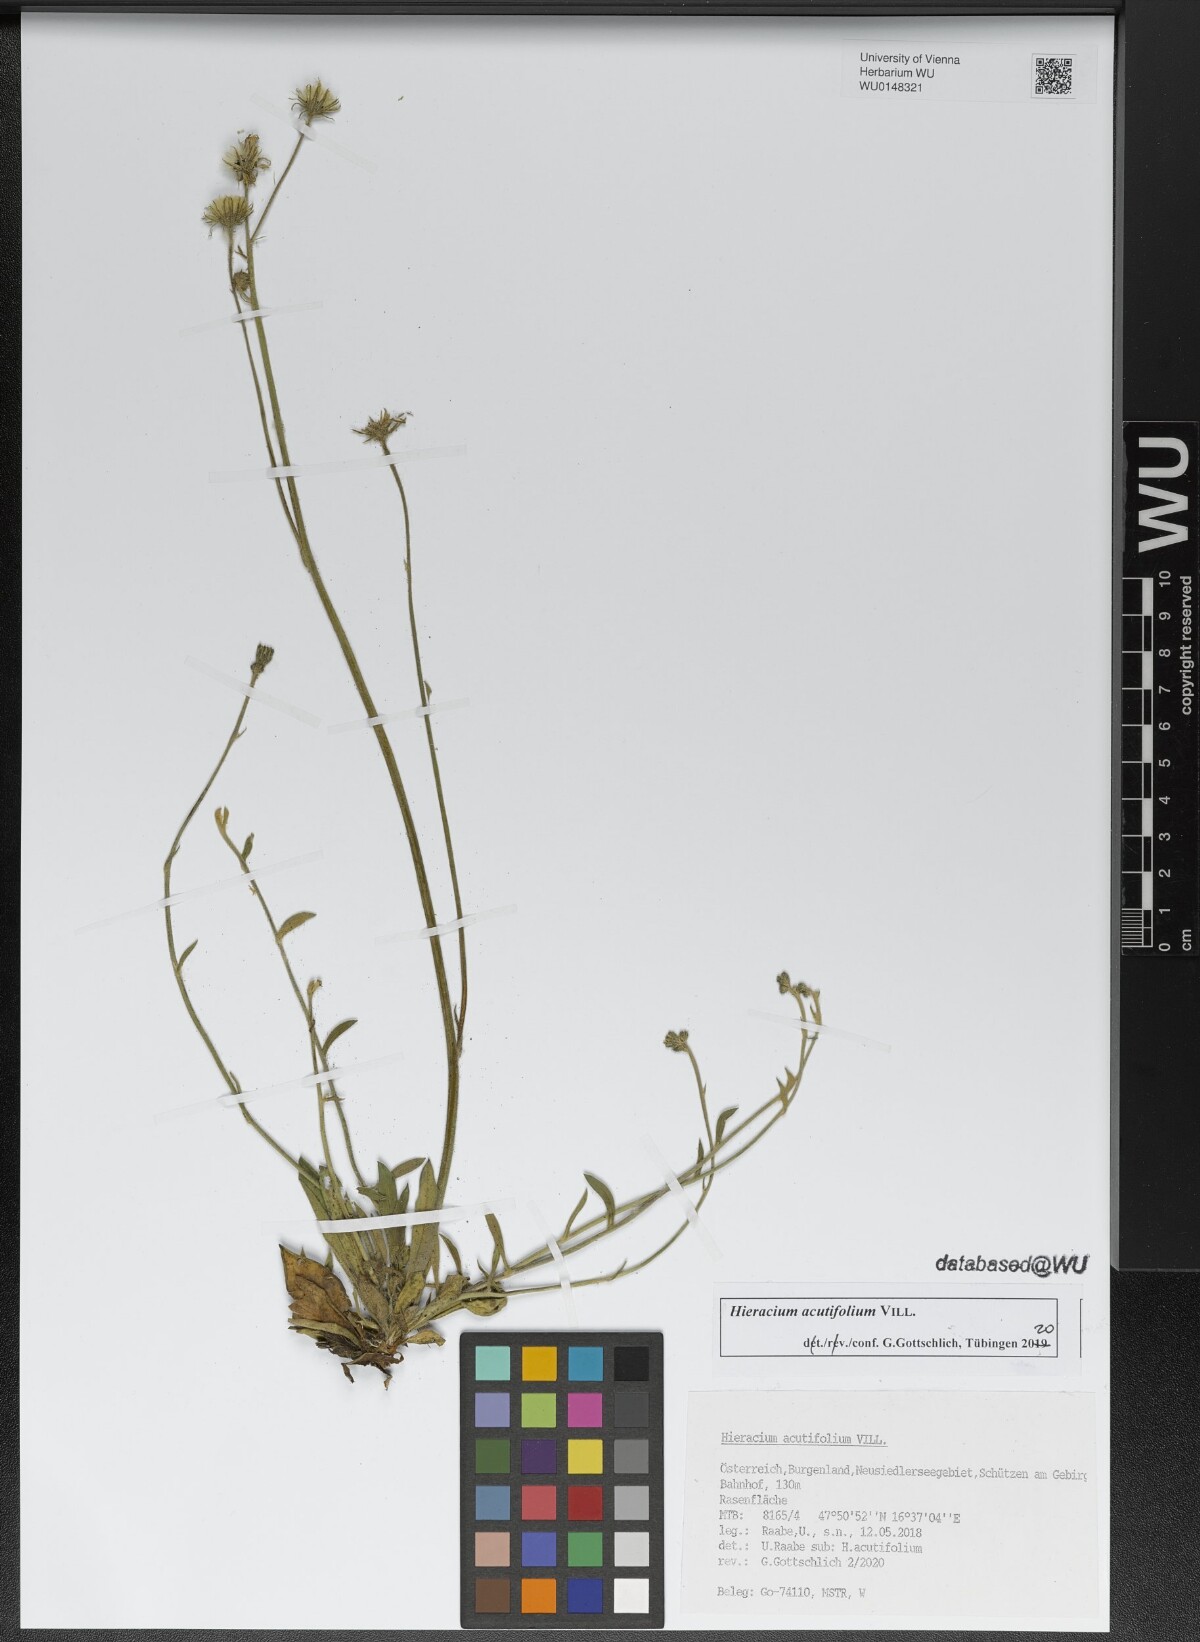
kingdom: Plantae
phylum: Tracheophyta
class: Magnoliopsida
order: Asterales
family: Asteraceae
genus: Pilosella
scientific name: Pilosella acutifolia
